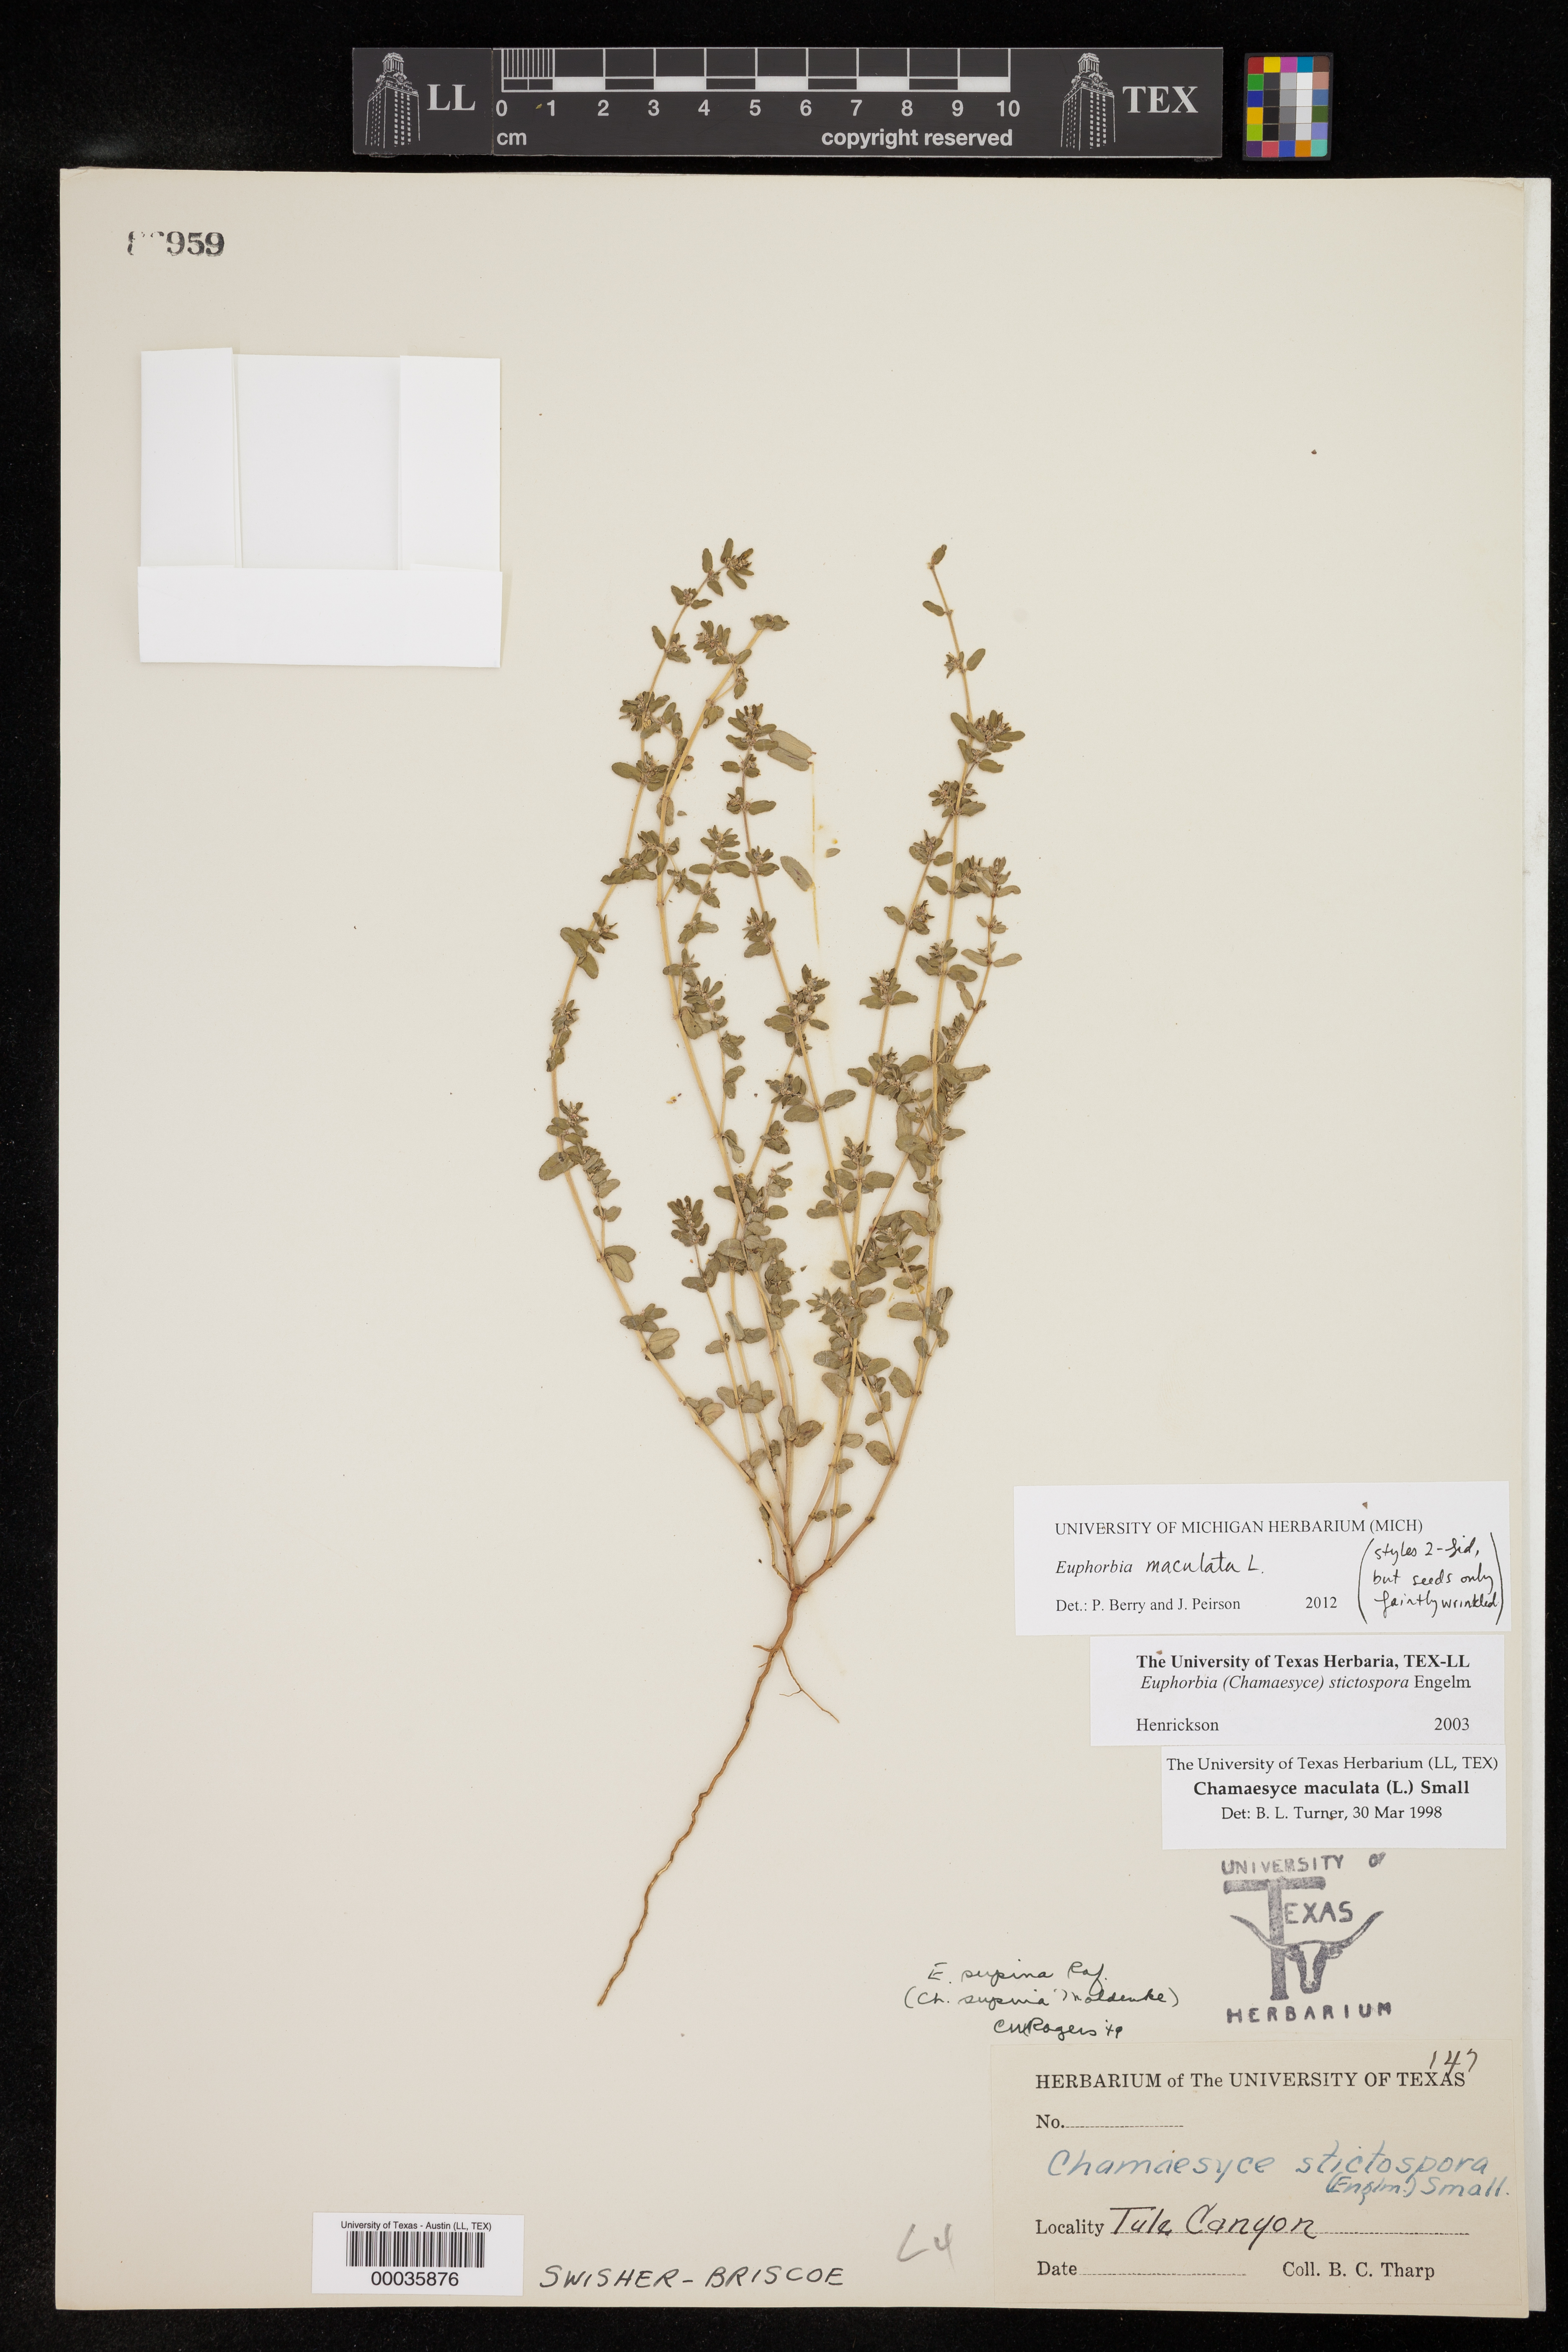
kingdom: Plantae
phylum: Tracheophyta
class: Magnoliopsida
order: Malpighiales
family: Euphorbiaceae
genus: Euphorbia
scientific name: Euphorbia maculata
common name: Spotted spurge
